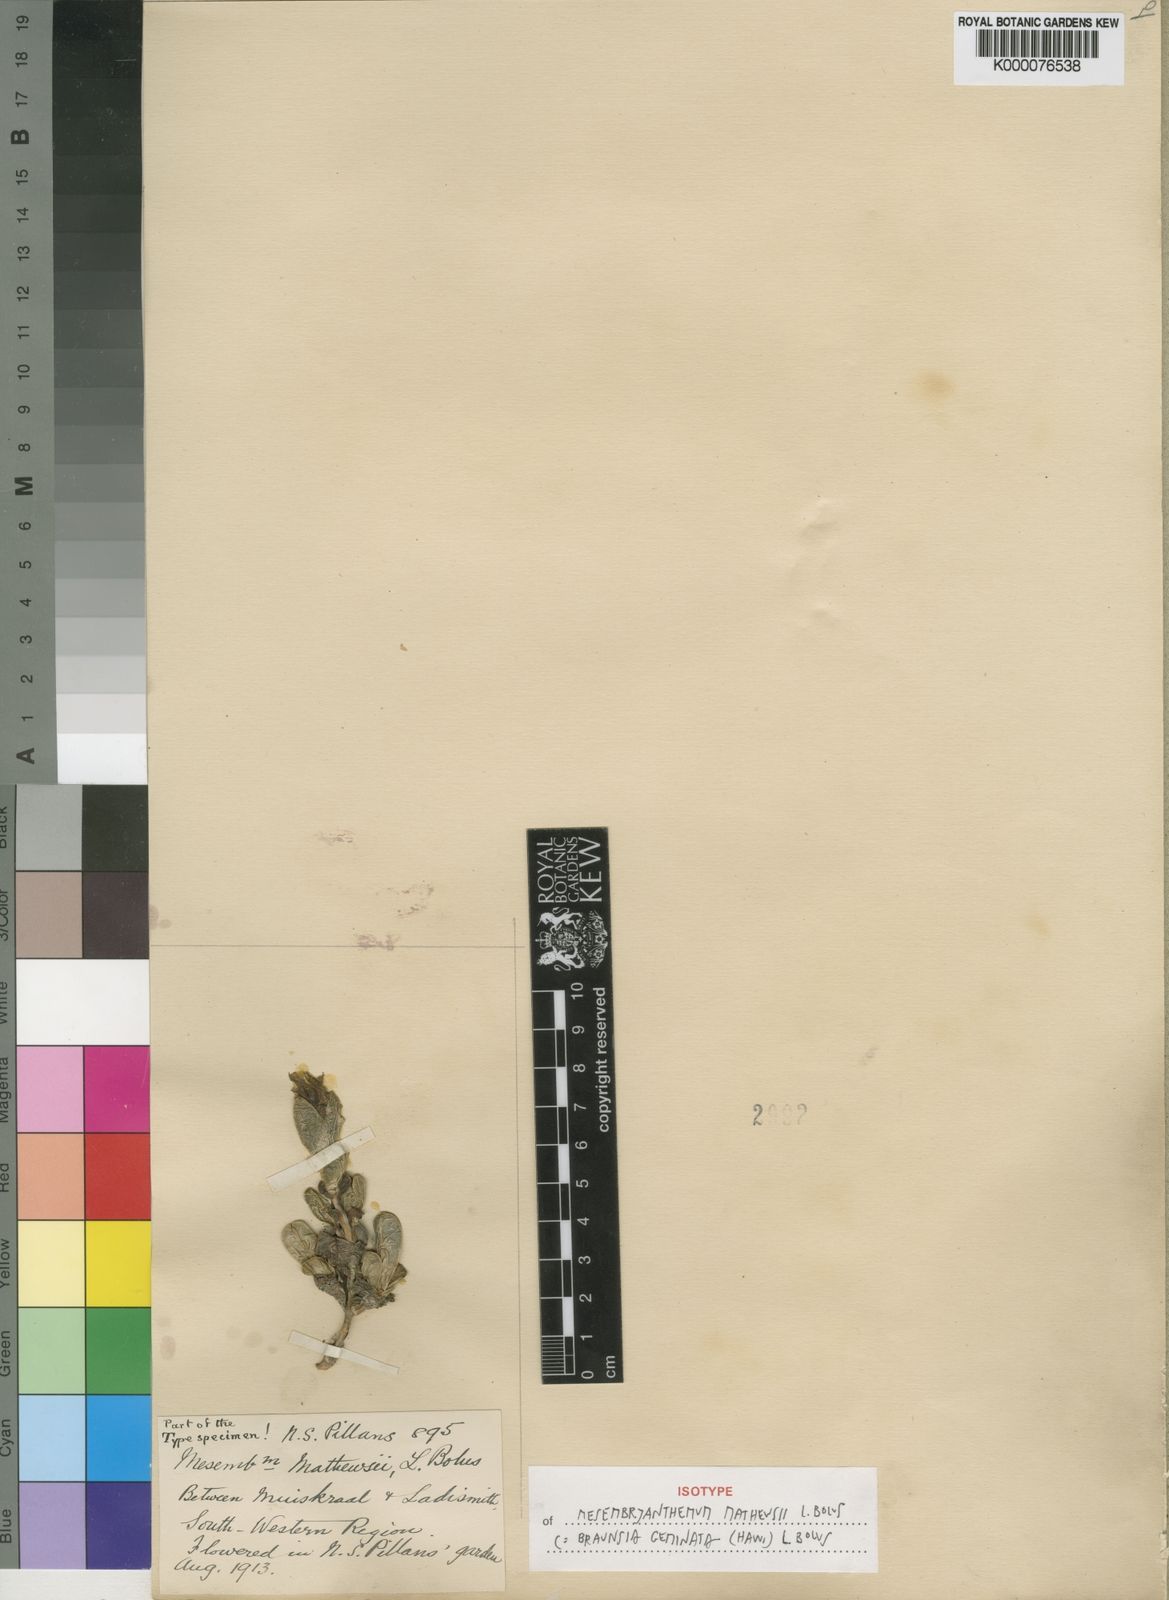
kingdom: Plantae
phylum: Tracheophyta
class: Magnoliopsida
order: Caryophyllales
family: Aizoaceae
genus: Braunsia
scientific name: Braunsia geminata
